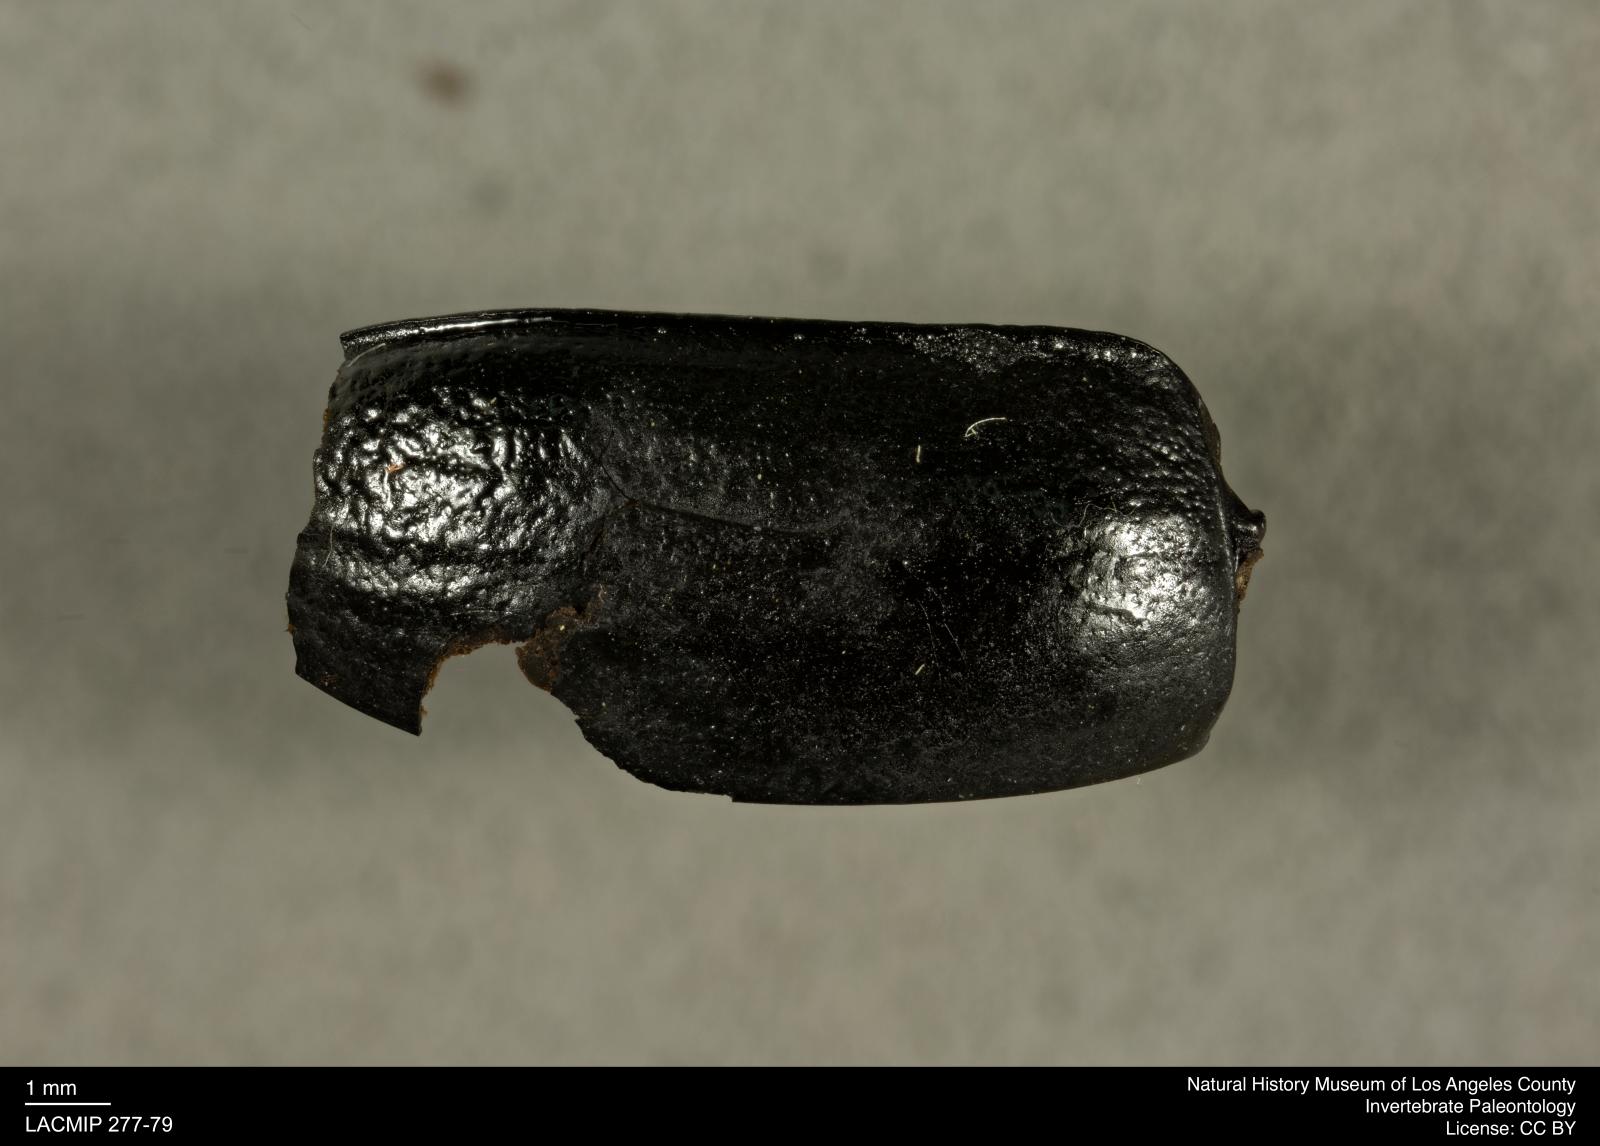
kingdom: Animalia
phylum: Arthropoda
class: Insecta
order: Coleoptera
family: Tenebrionidae
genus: Coniontis
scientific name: Coniontis abdominalis
